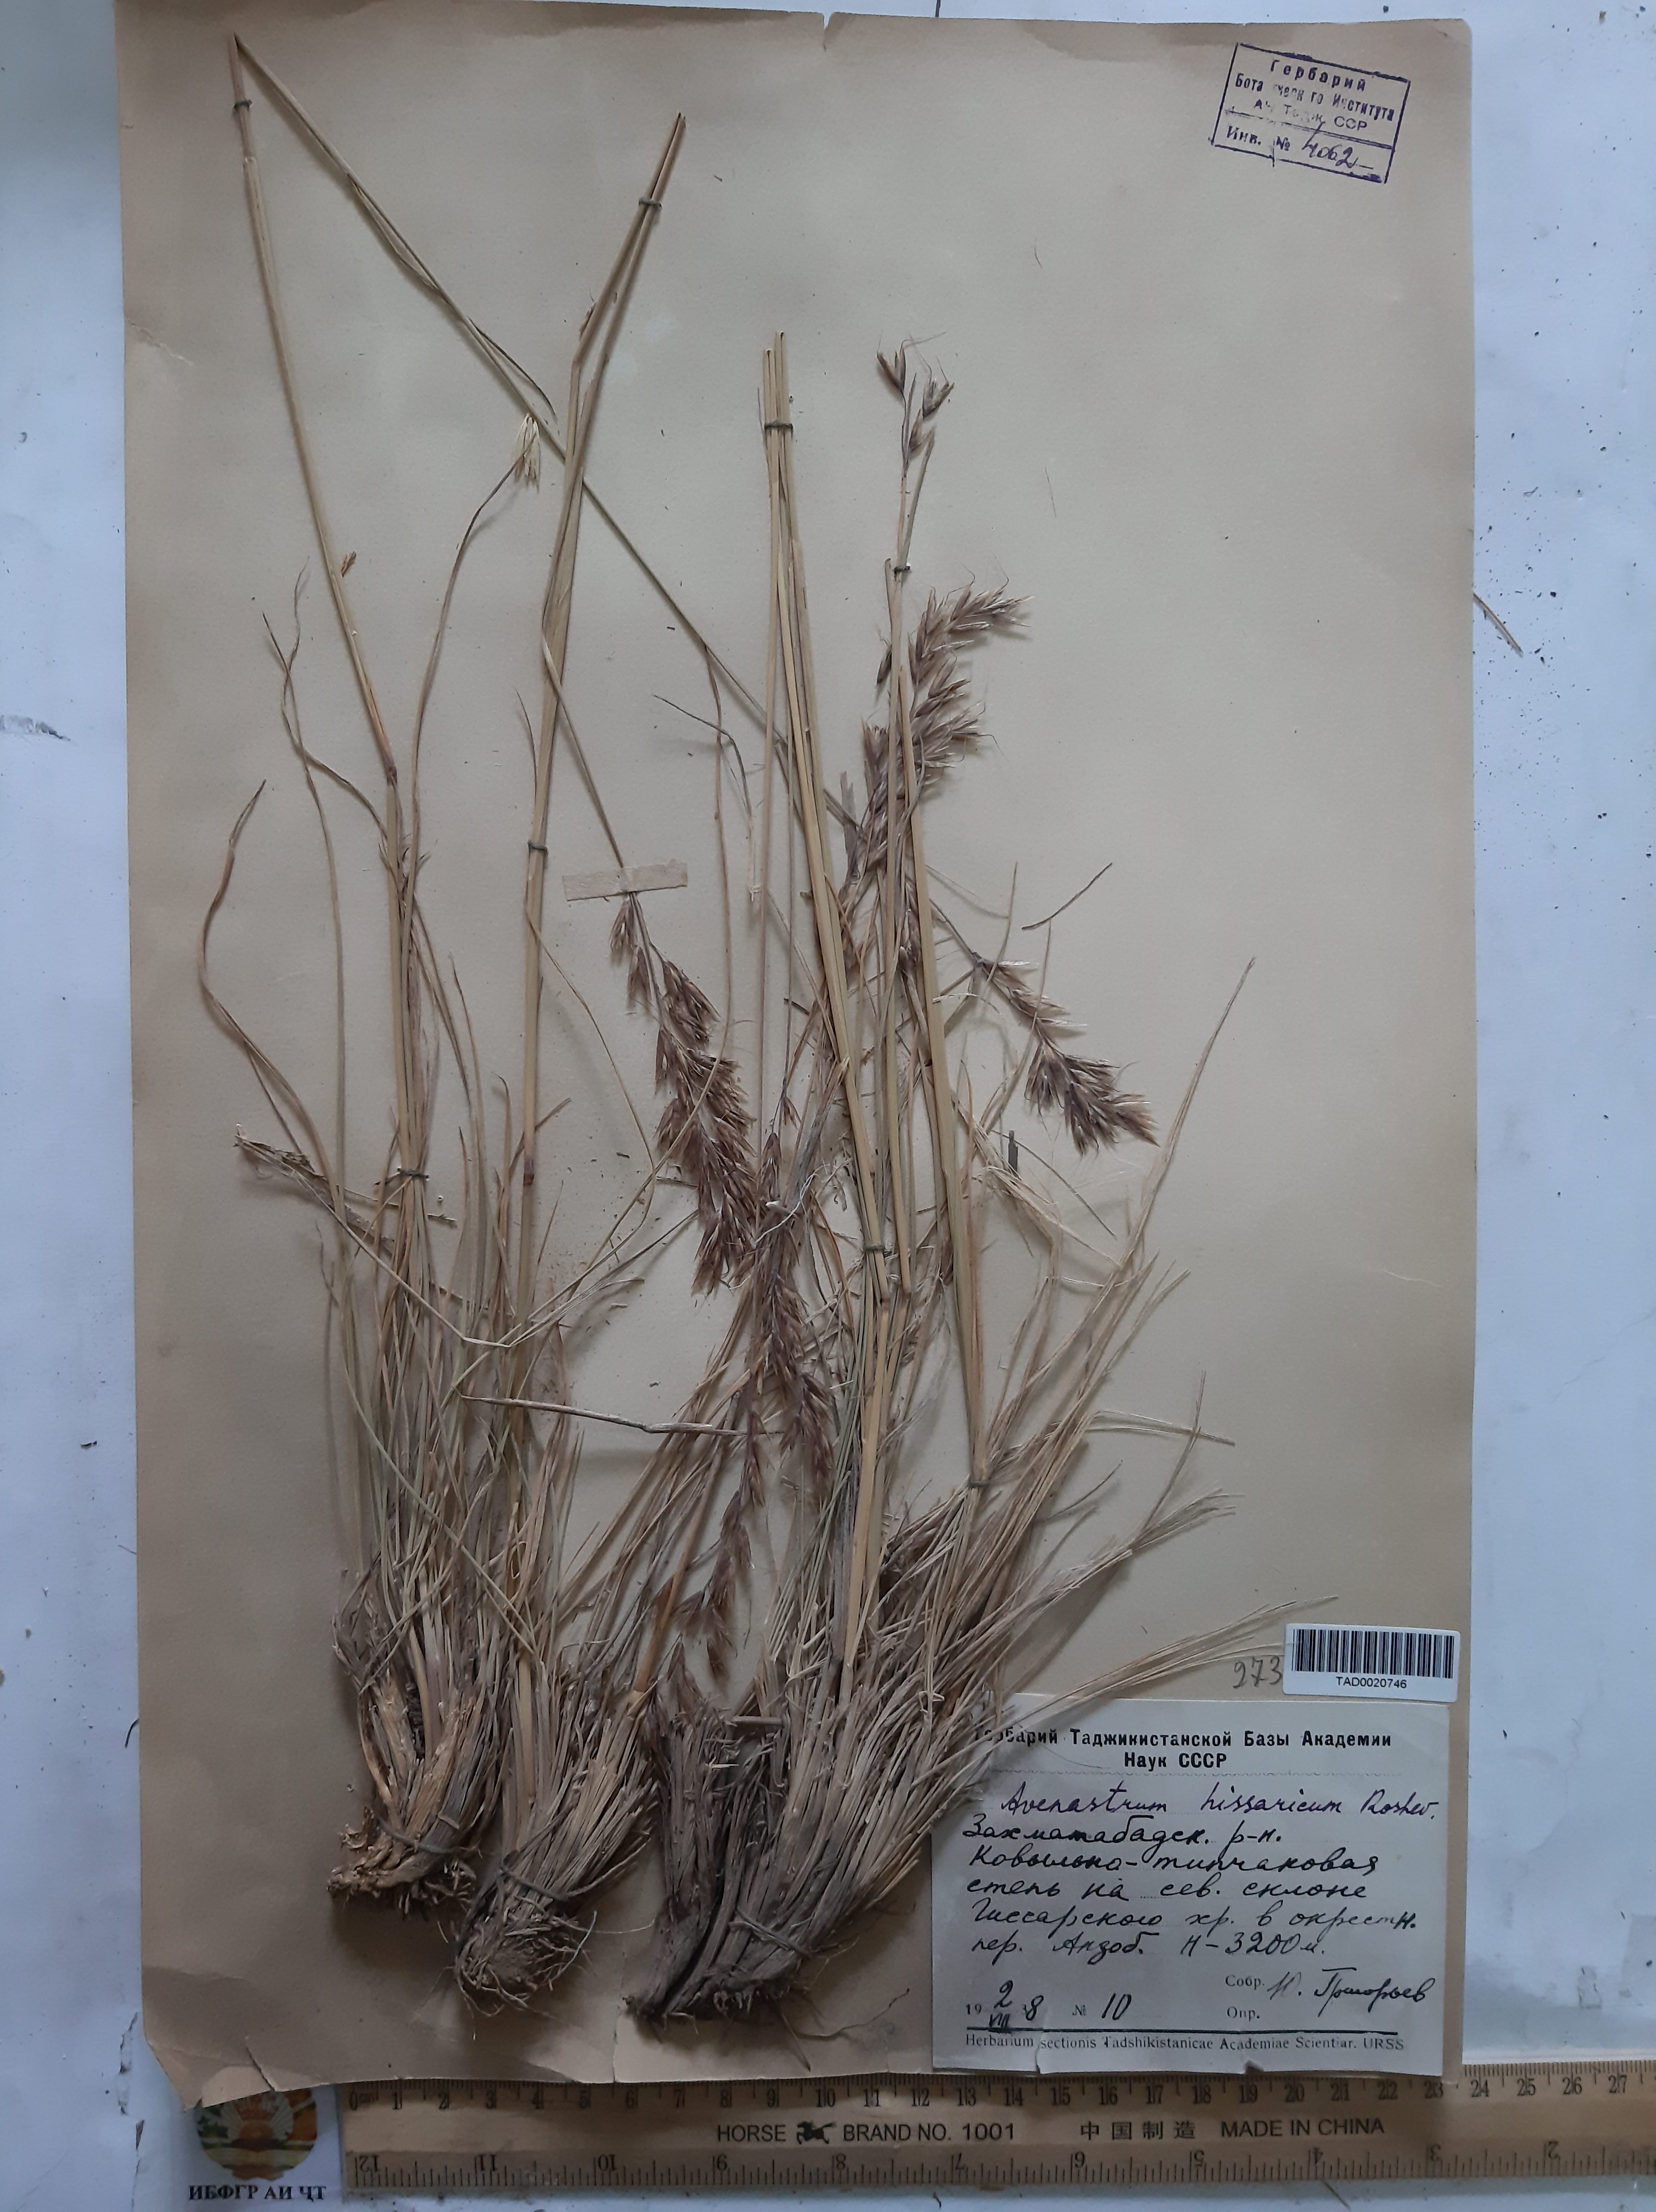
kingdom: Plantae
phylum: Tracheophyta
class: Liliopsida
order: Poales
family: Poaceae
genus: Helictotrichon
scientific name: Helictotrichon hissaricum
